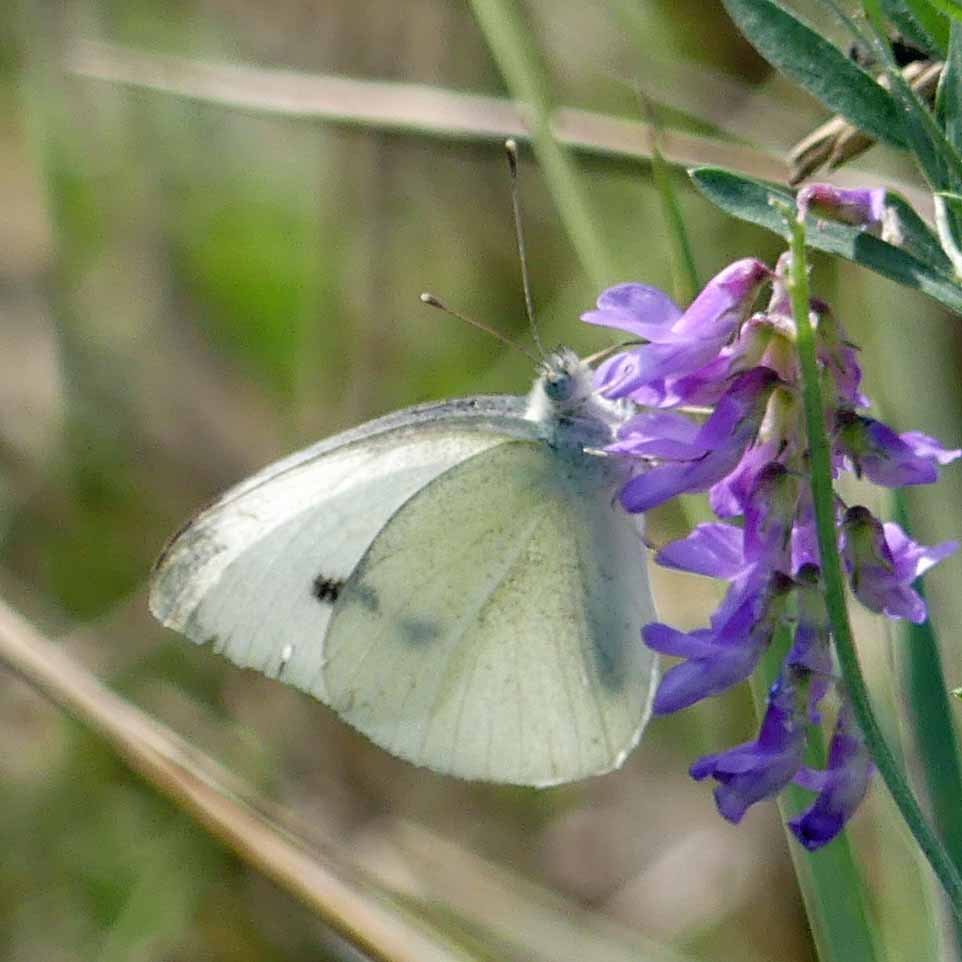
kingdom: Animalia
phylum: Arthropoda
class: Insecta
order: Lepidoptera
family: Pieridae
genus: Pieris
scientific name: Pieris rapae
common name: Cabbage White
